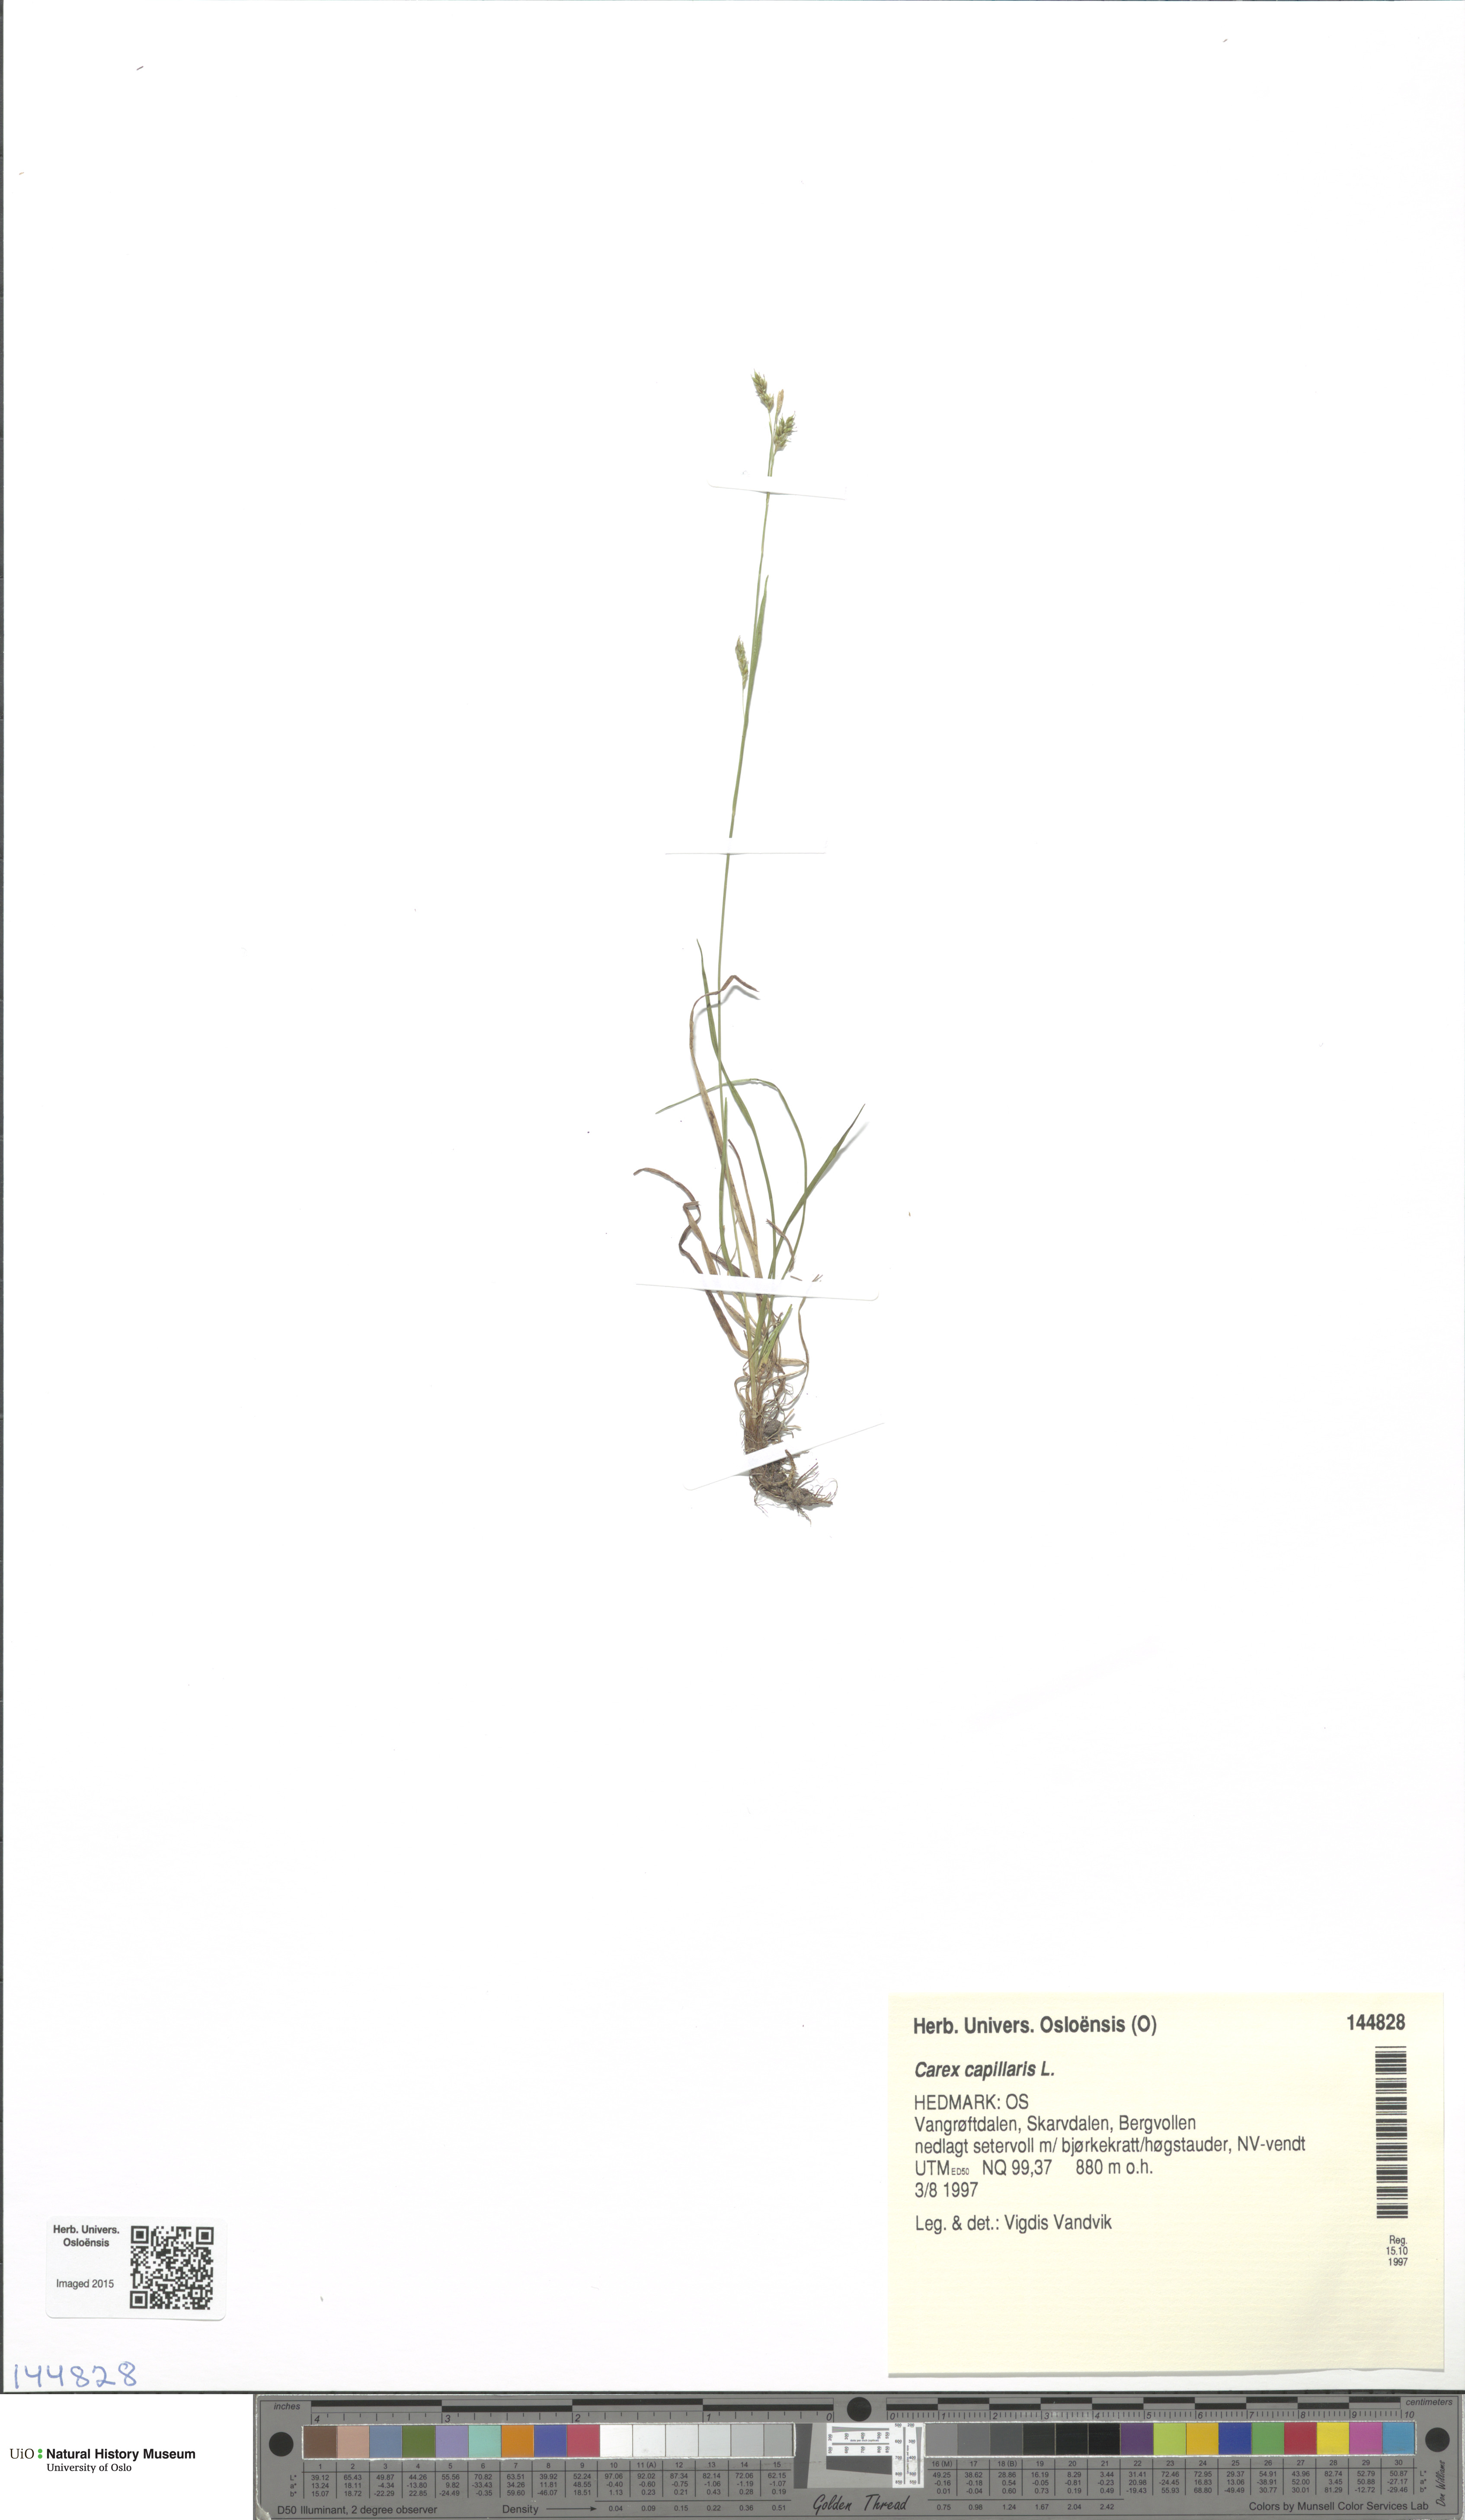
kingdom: Plantae
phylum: Tracheophyta
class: Liliopsida
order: Poales
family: Cyperaceae
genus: Carex
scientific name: Carex capillaris
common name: Hair sedge
